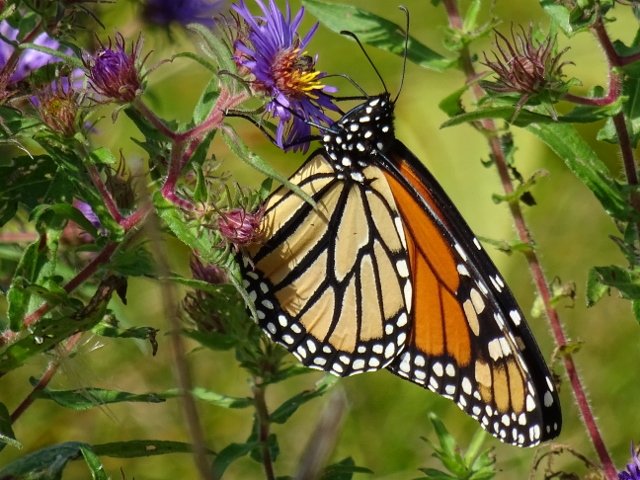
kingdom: Animalia
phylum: Arthropoda
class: Insecta
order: Lepidoptera
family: Nymphalidae
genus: Danaus
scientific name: Danaus plexippus
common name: Monarch
